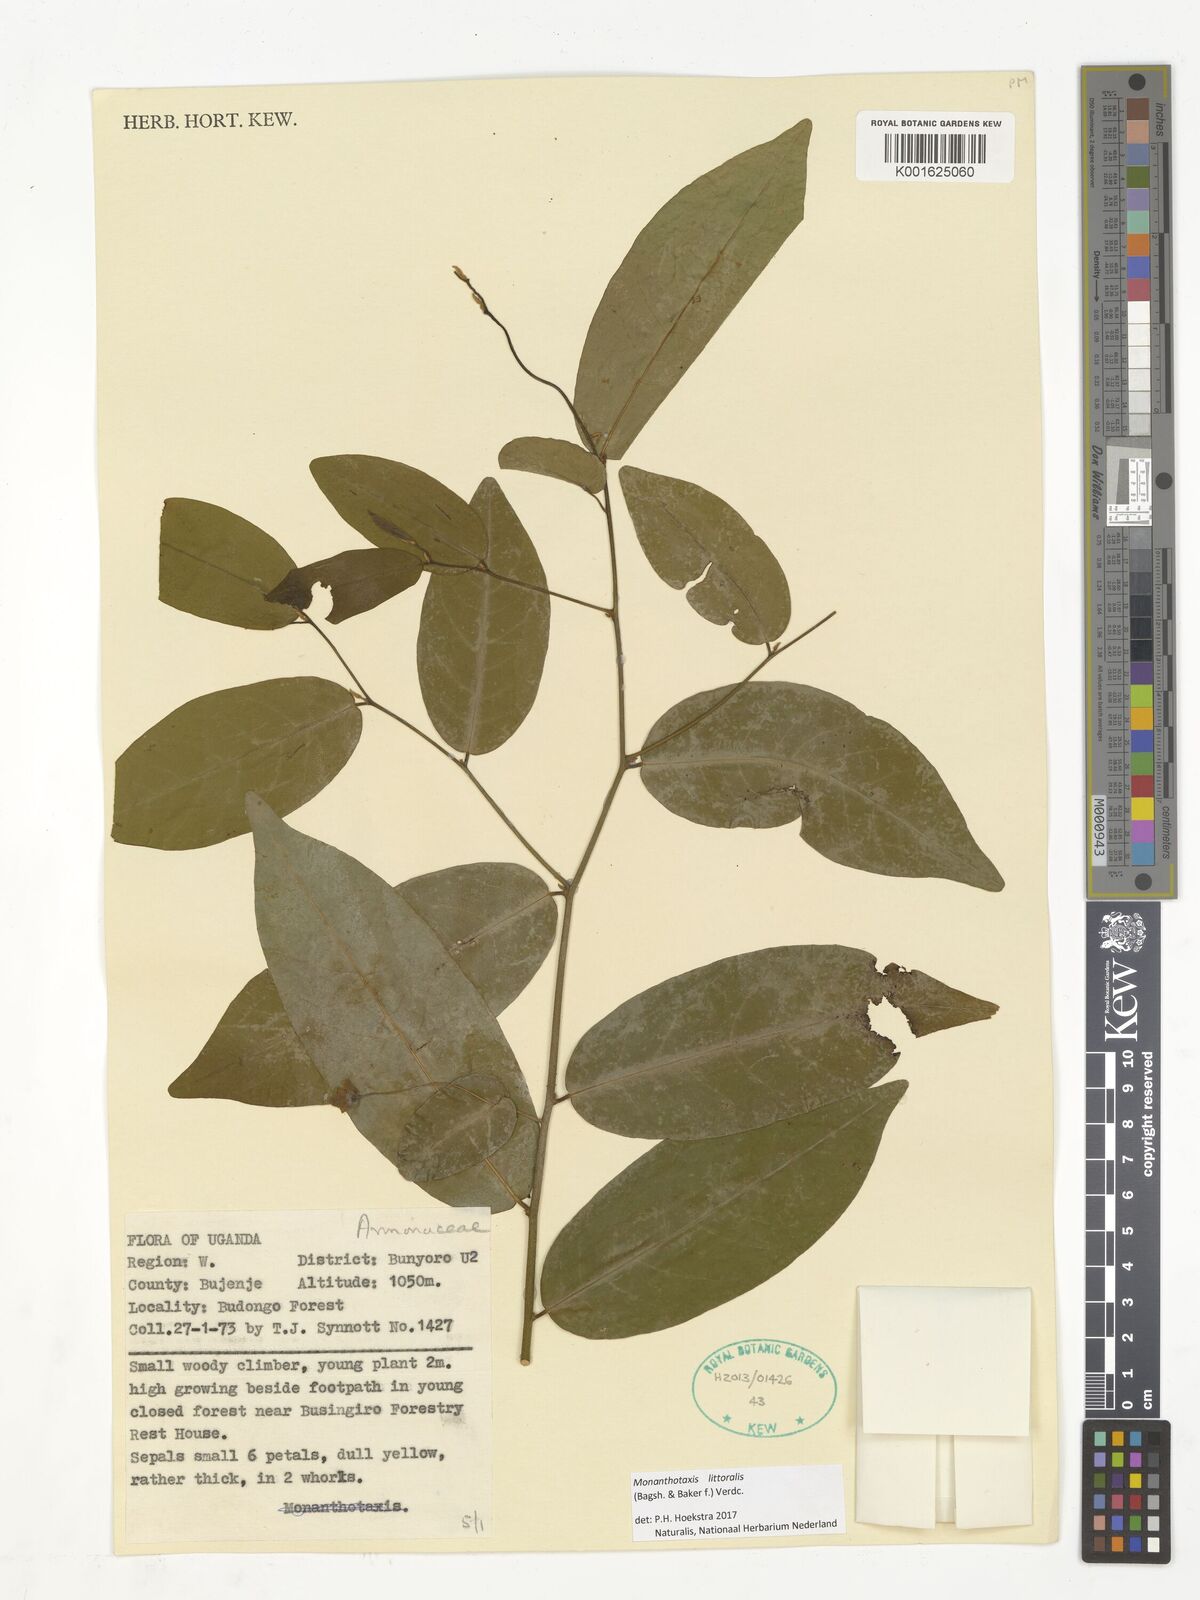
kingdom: Plantae
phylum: Tracheophyta
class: Magnoliopsida
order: Magnoliales
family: Annonaceae
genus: Monanthotaxis
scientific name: Monanthotaxis littoralis
